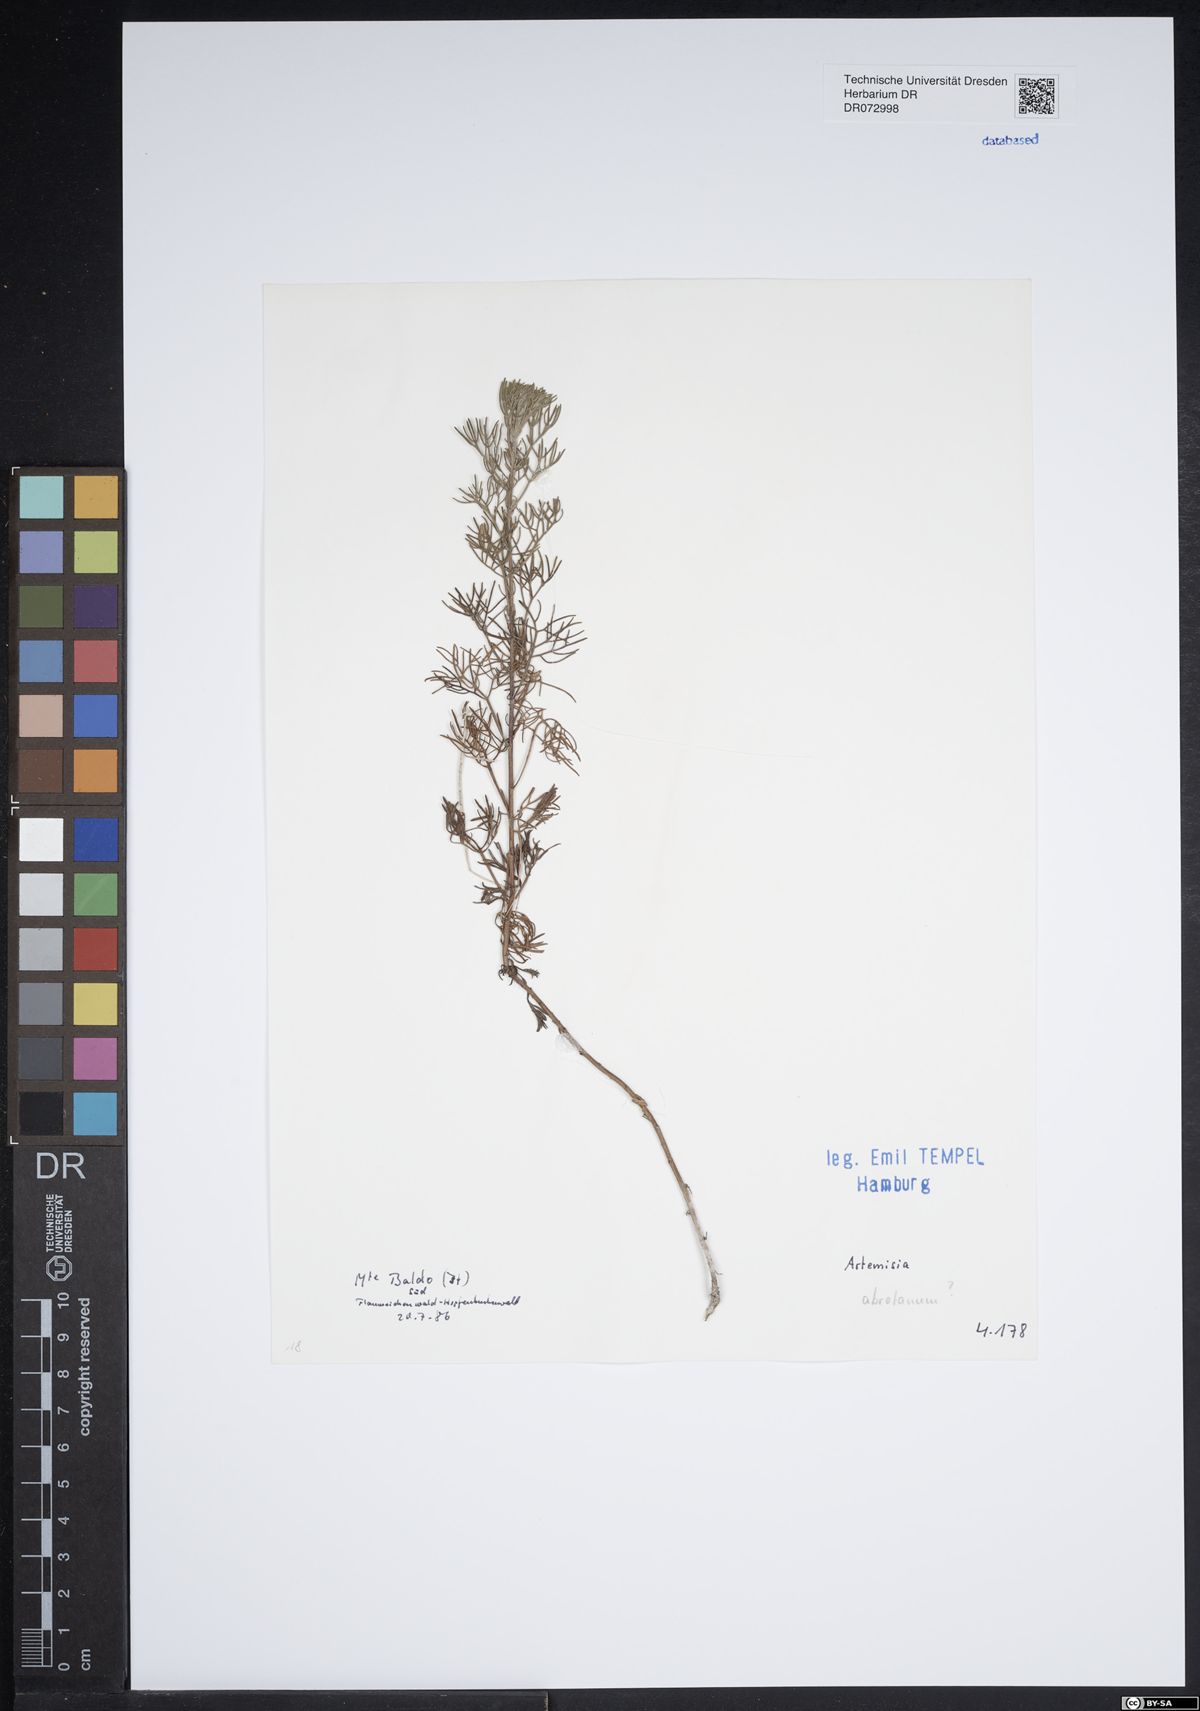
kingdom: Plantae
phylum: Tracheophyta
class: Magnoliopsida
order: Asterales
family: Asteraceae
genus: Artemisia
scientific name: Artemisia abrotanum
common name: Southernwood
